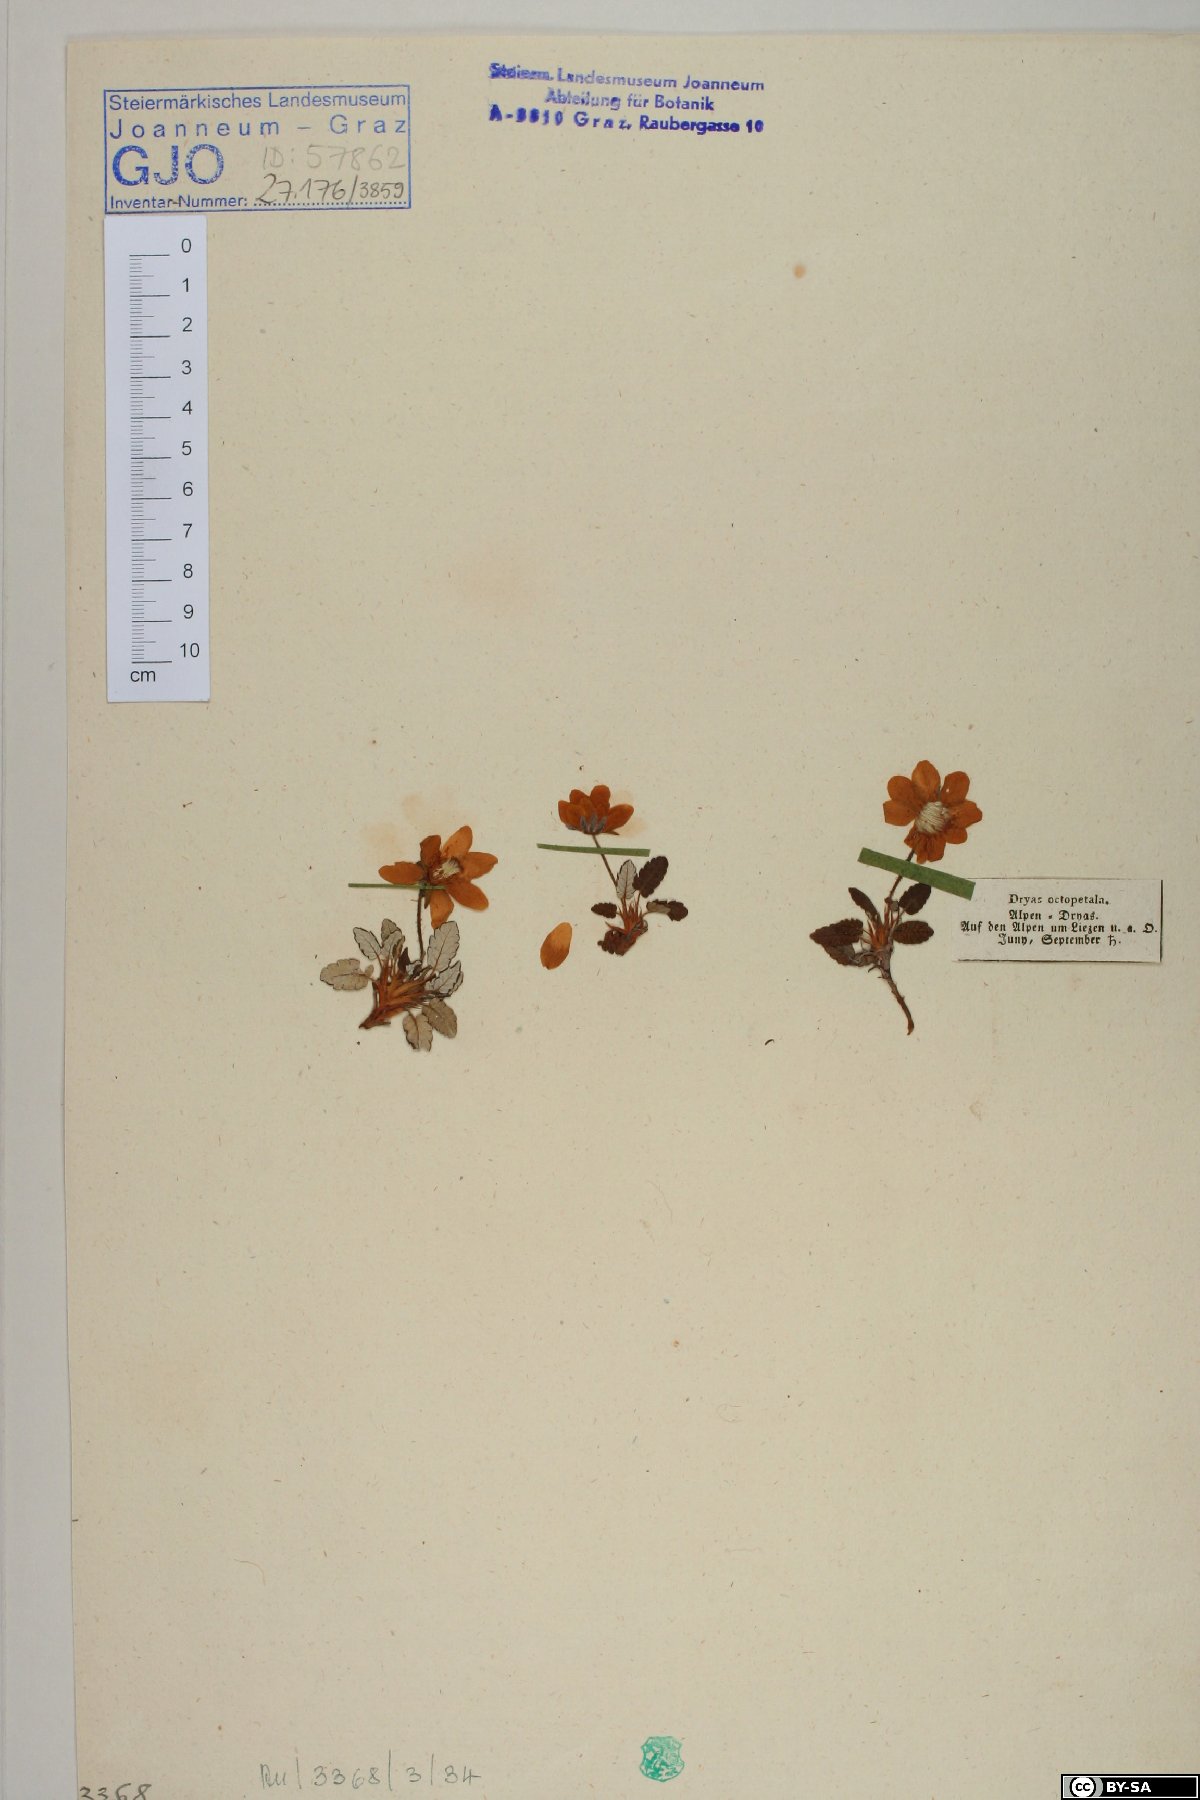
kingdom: Plantae
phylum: Tracheophyta
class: Magnoliopsida
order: Rosales
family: Rosaceae
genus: Dryas
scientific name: Dryas octopetala
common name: Eight-petal mountain-avens
